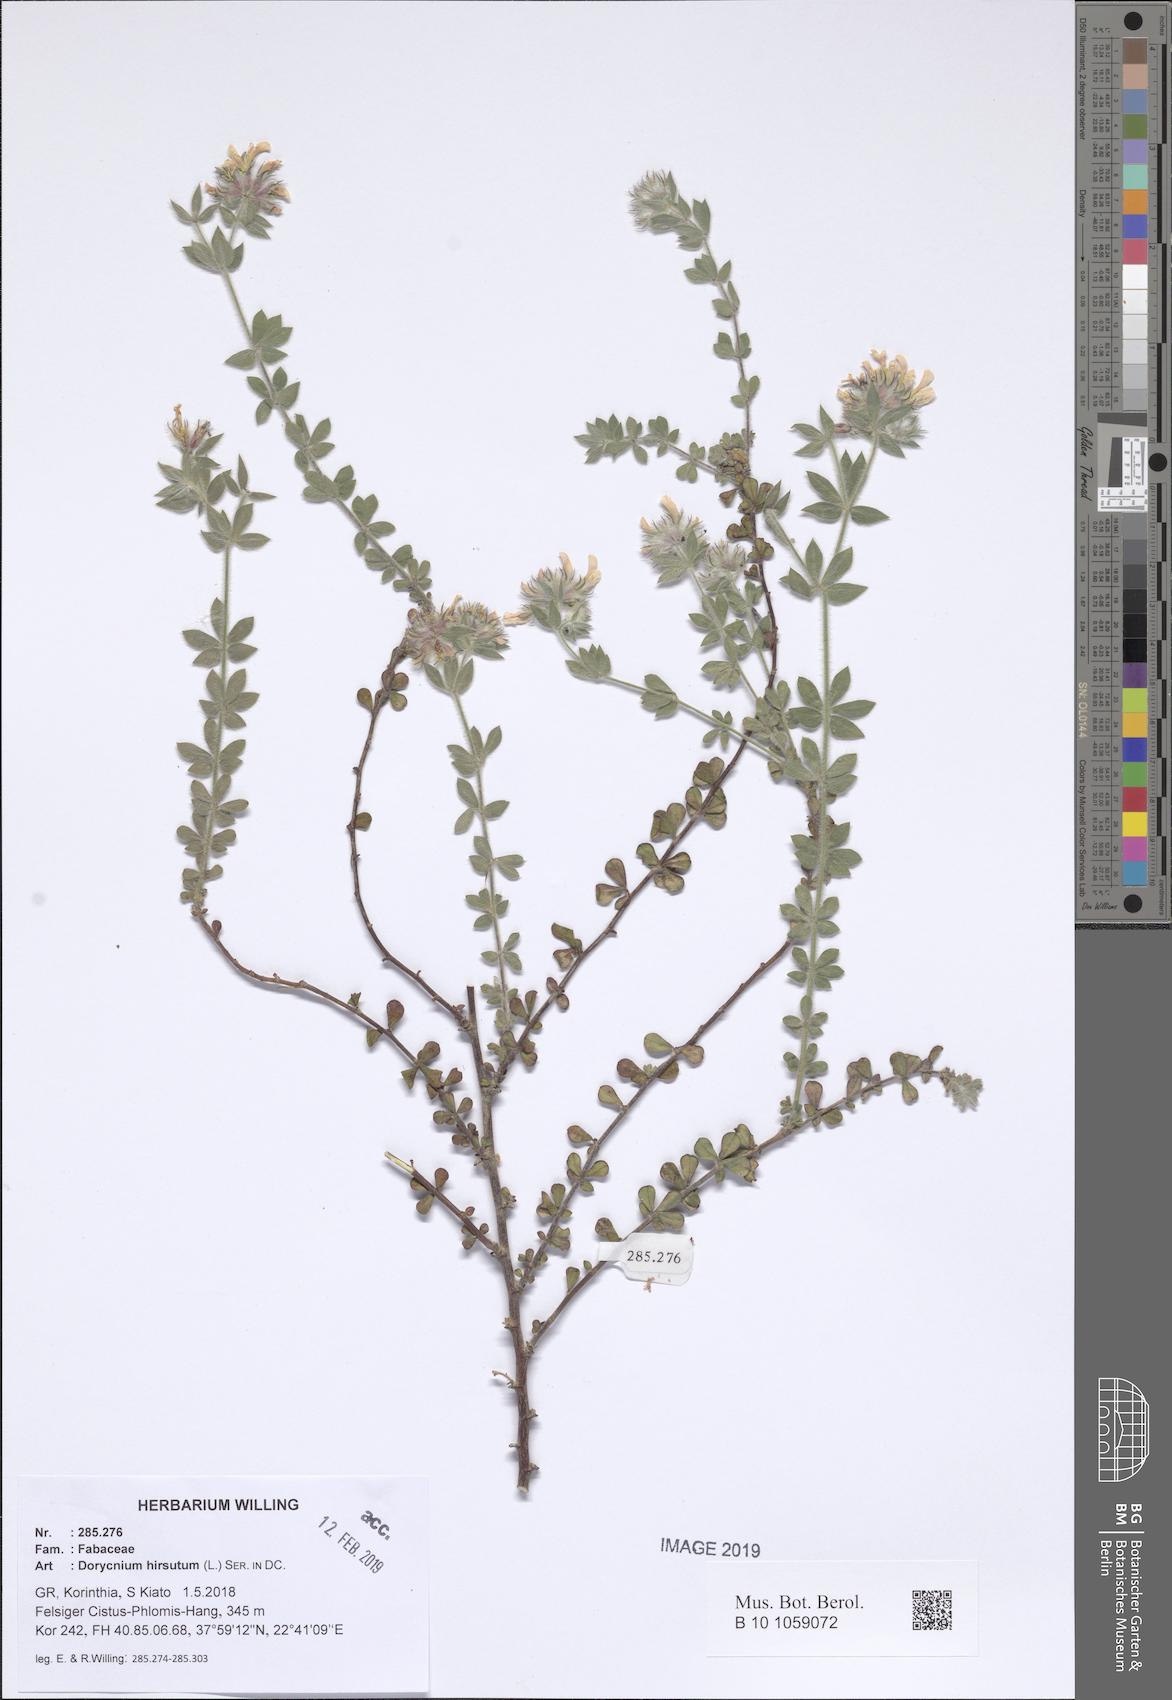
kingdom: Plantae
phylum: Tracheophyta
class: Magnoliopsida
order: Fabales
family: Fabaceae
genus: Lotus
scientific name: Lotus hirsutus
